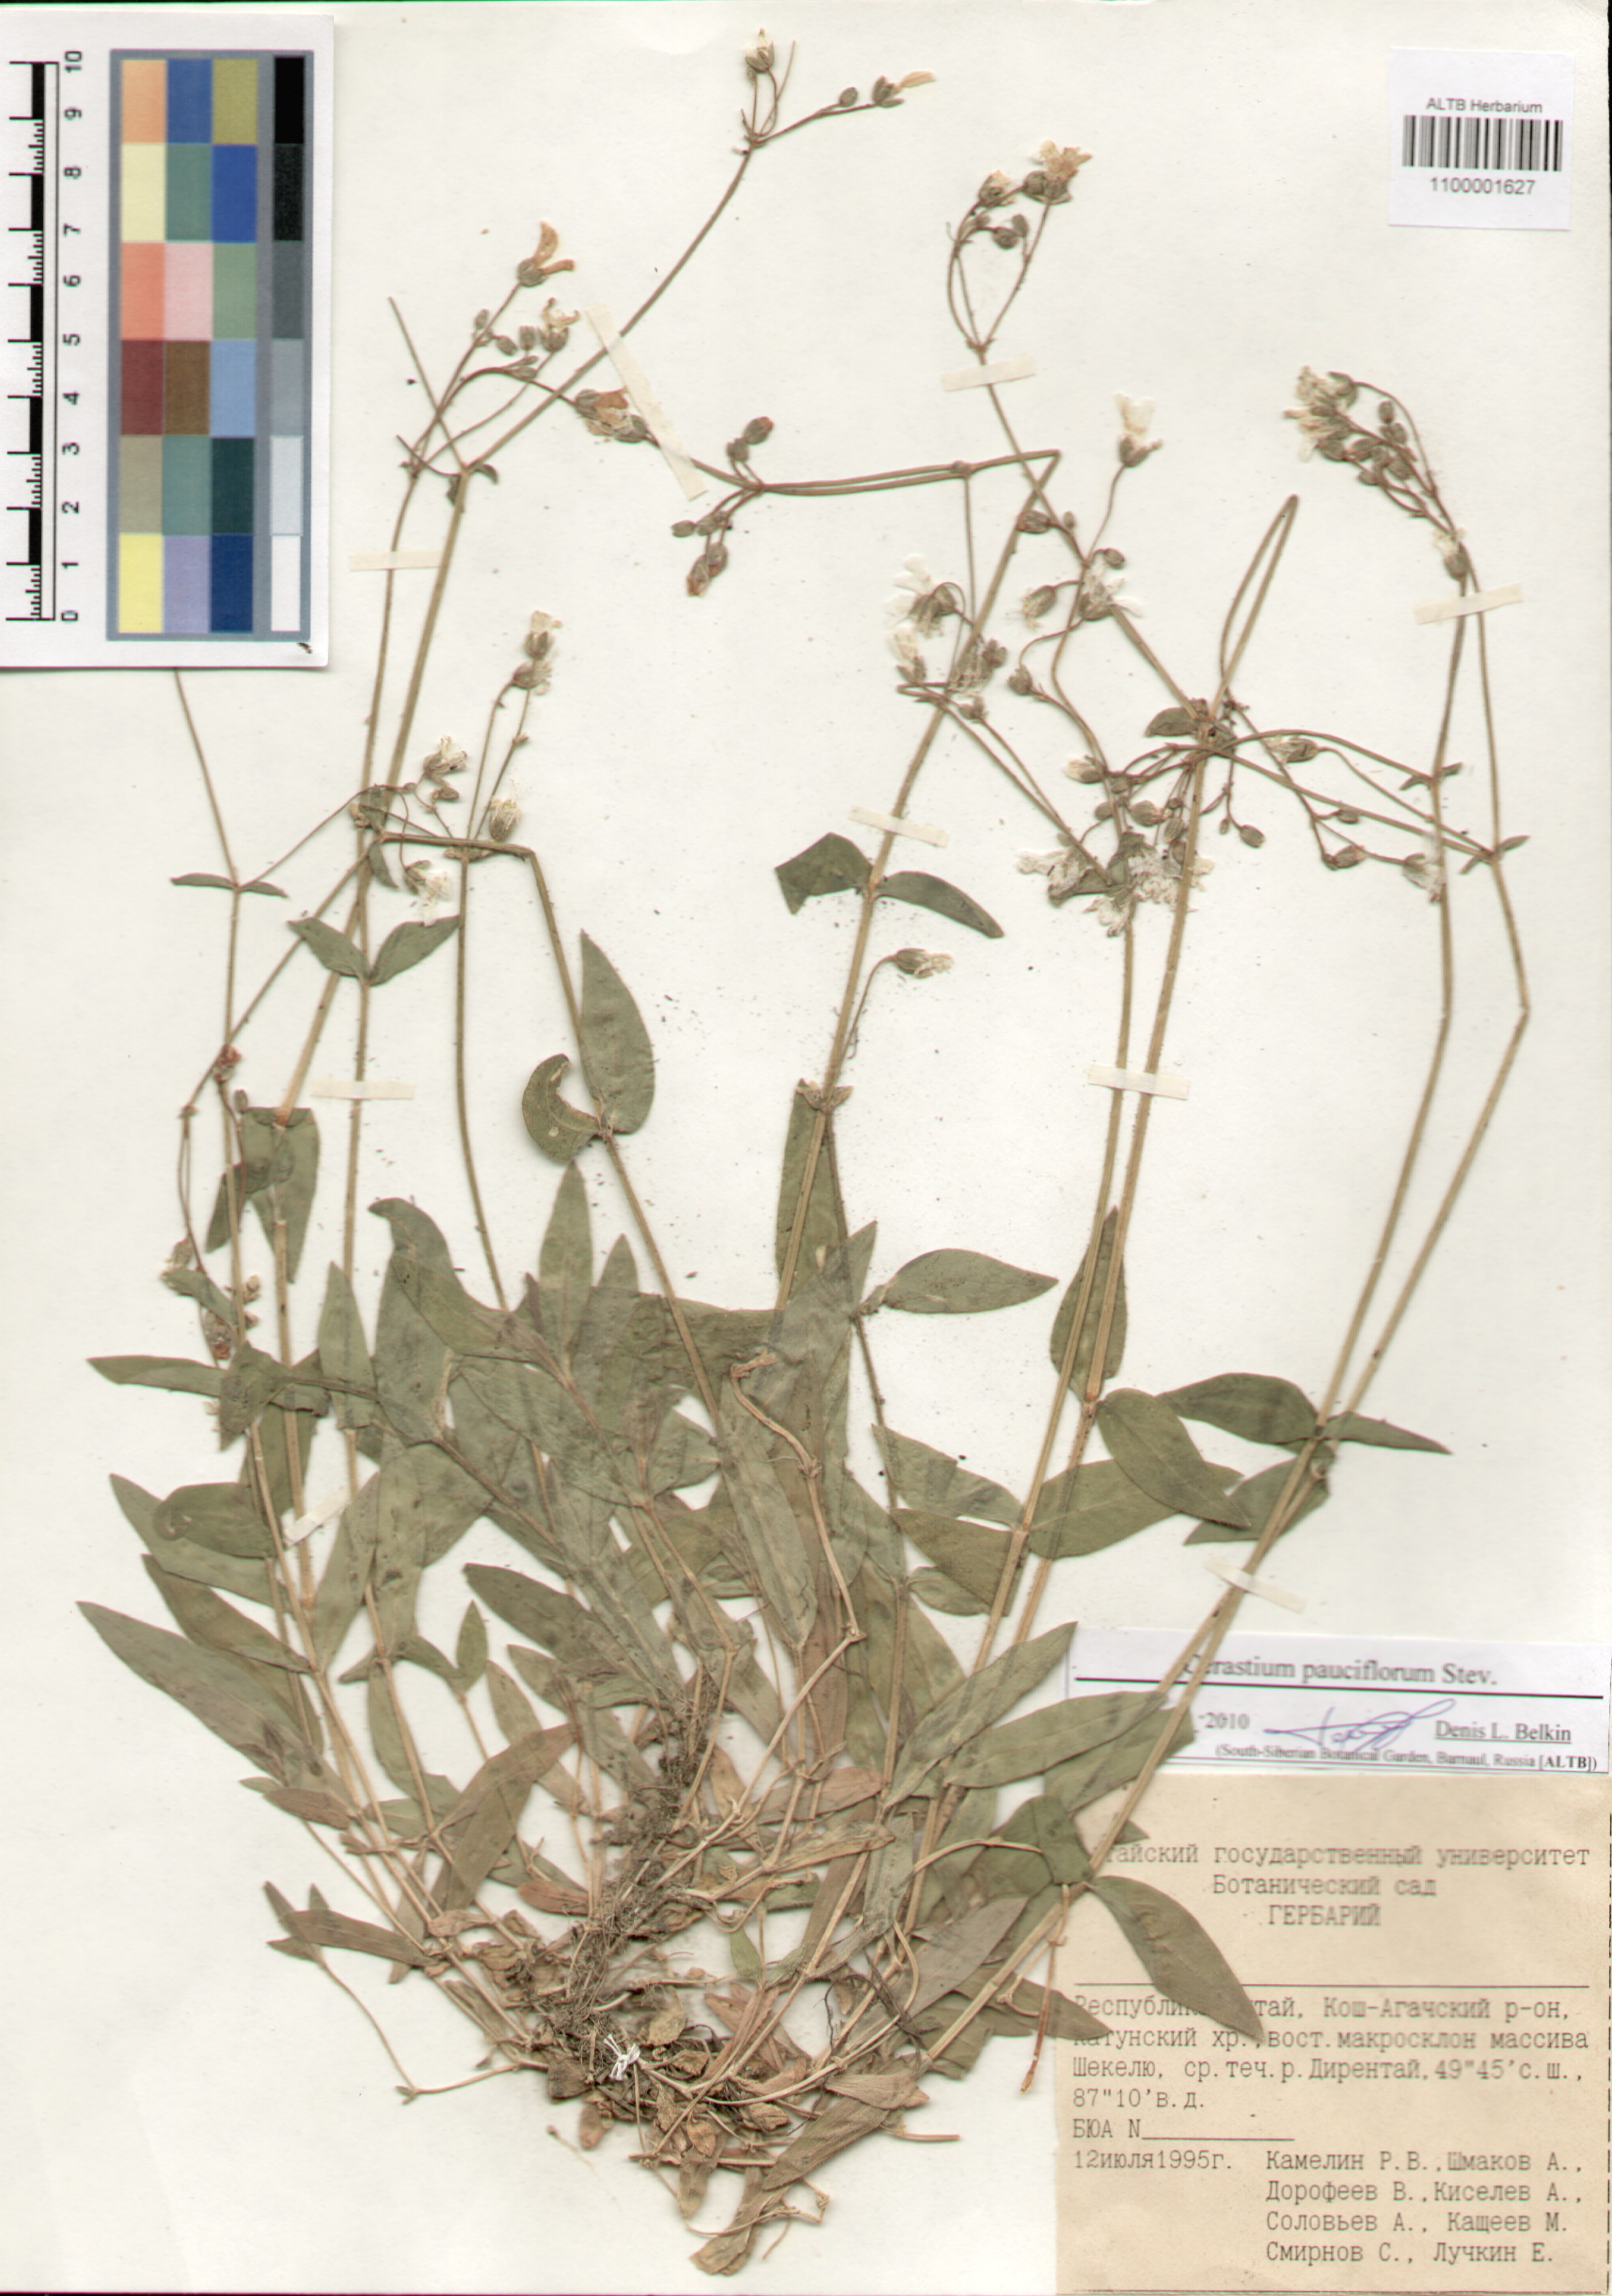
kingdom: Plantae
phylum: Tracheophyta
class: Magnoliopsida
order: Caryophyllales
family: Caryophyllaceae
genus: Cerastium
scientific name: Cerastium pauciflorum
